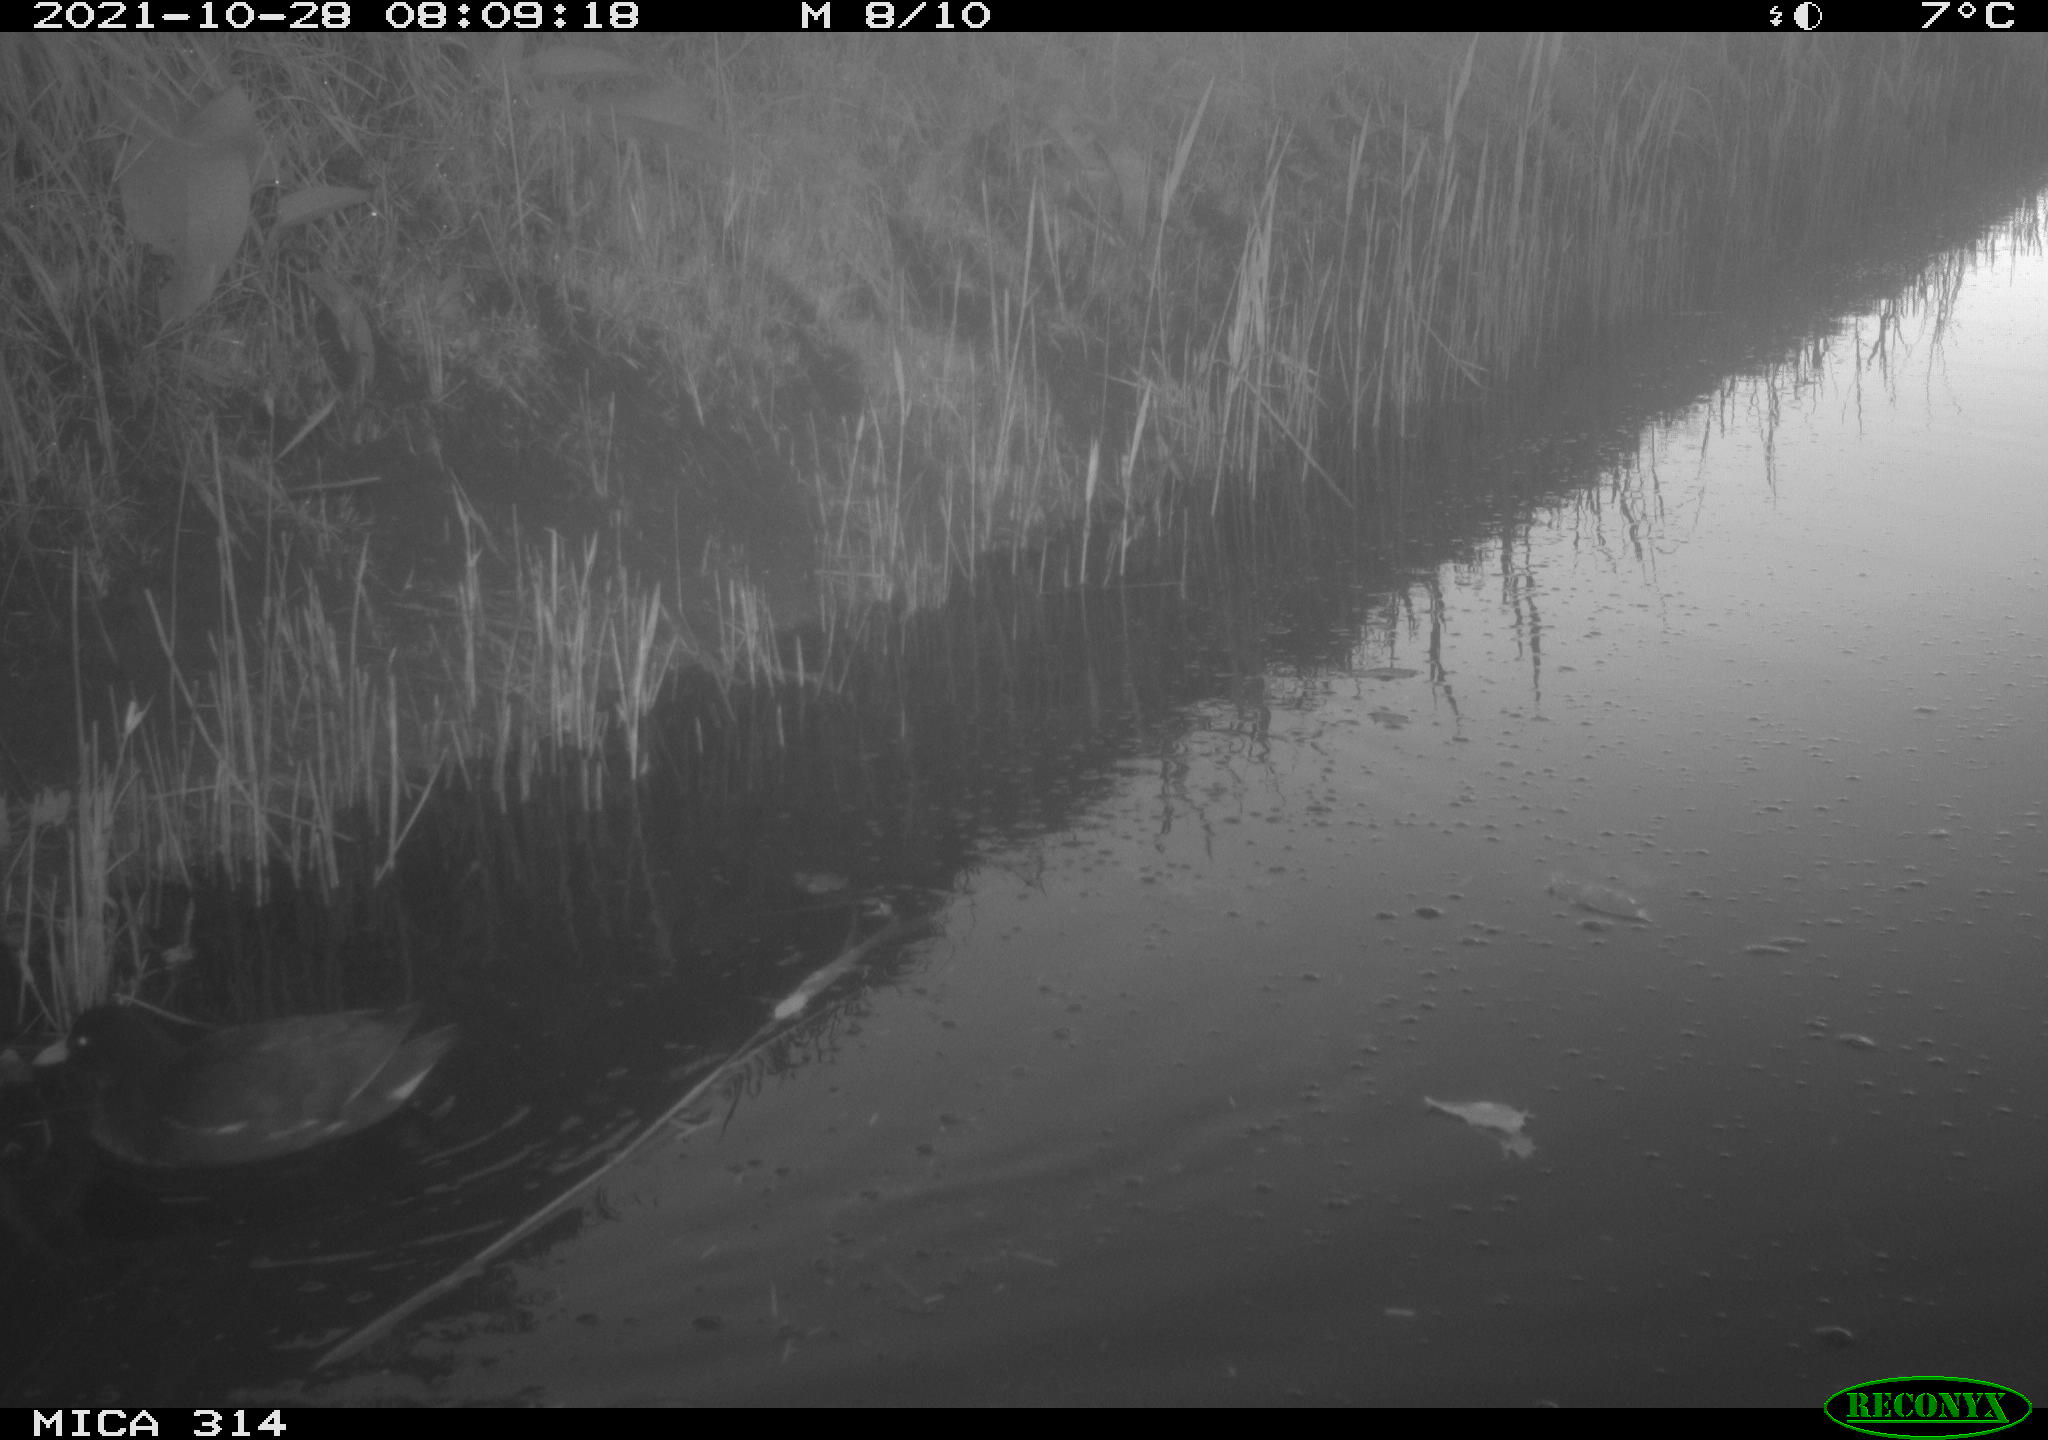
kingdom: Animalia
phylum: Chordata
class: Aves
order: Gruiformes
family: Rallidae
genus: Gallinula
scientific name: Gallinula chloropus
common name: Common moorhen
